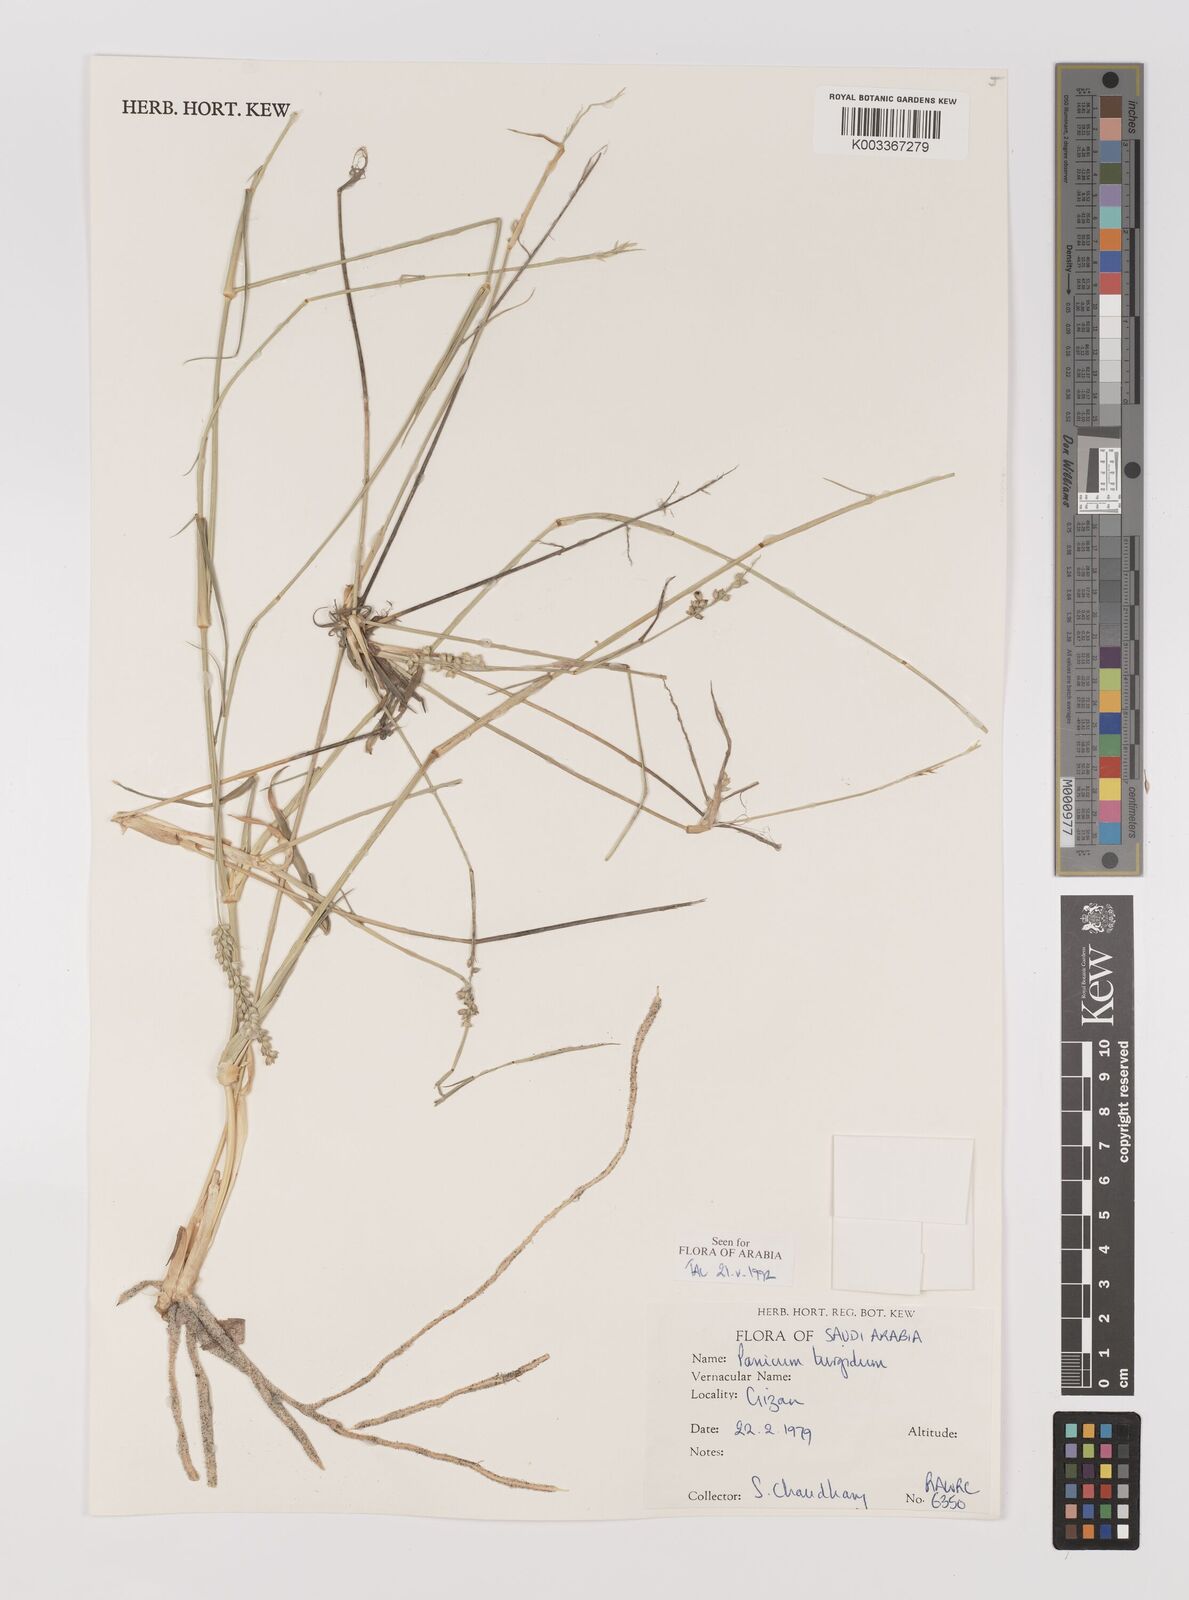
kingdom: Plantae
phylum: Tracheophyta
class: Liliopsida
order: Poales
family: Poaceae
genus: Panicum
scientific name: Panicum turgidum
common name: Desert grass
